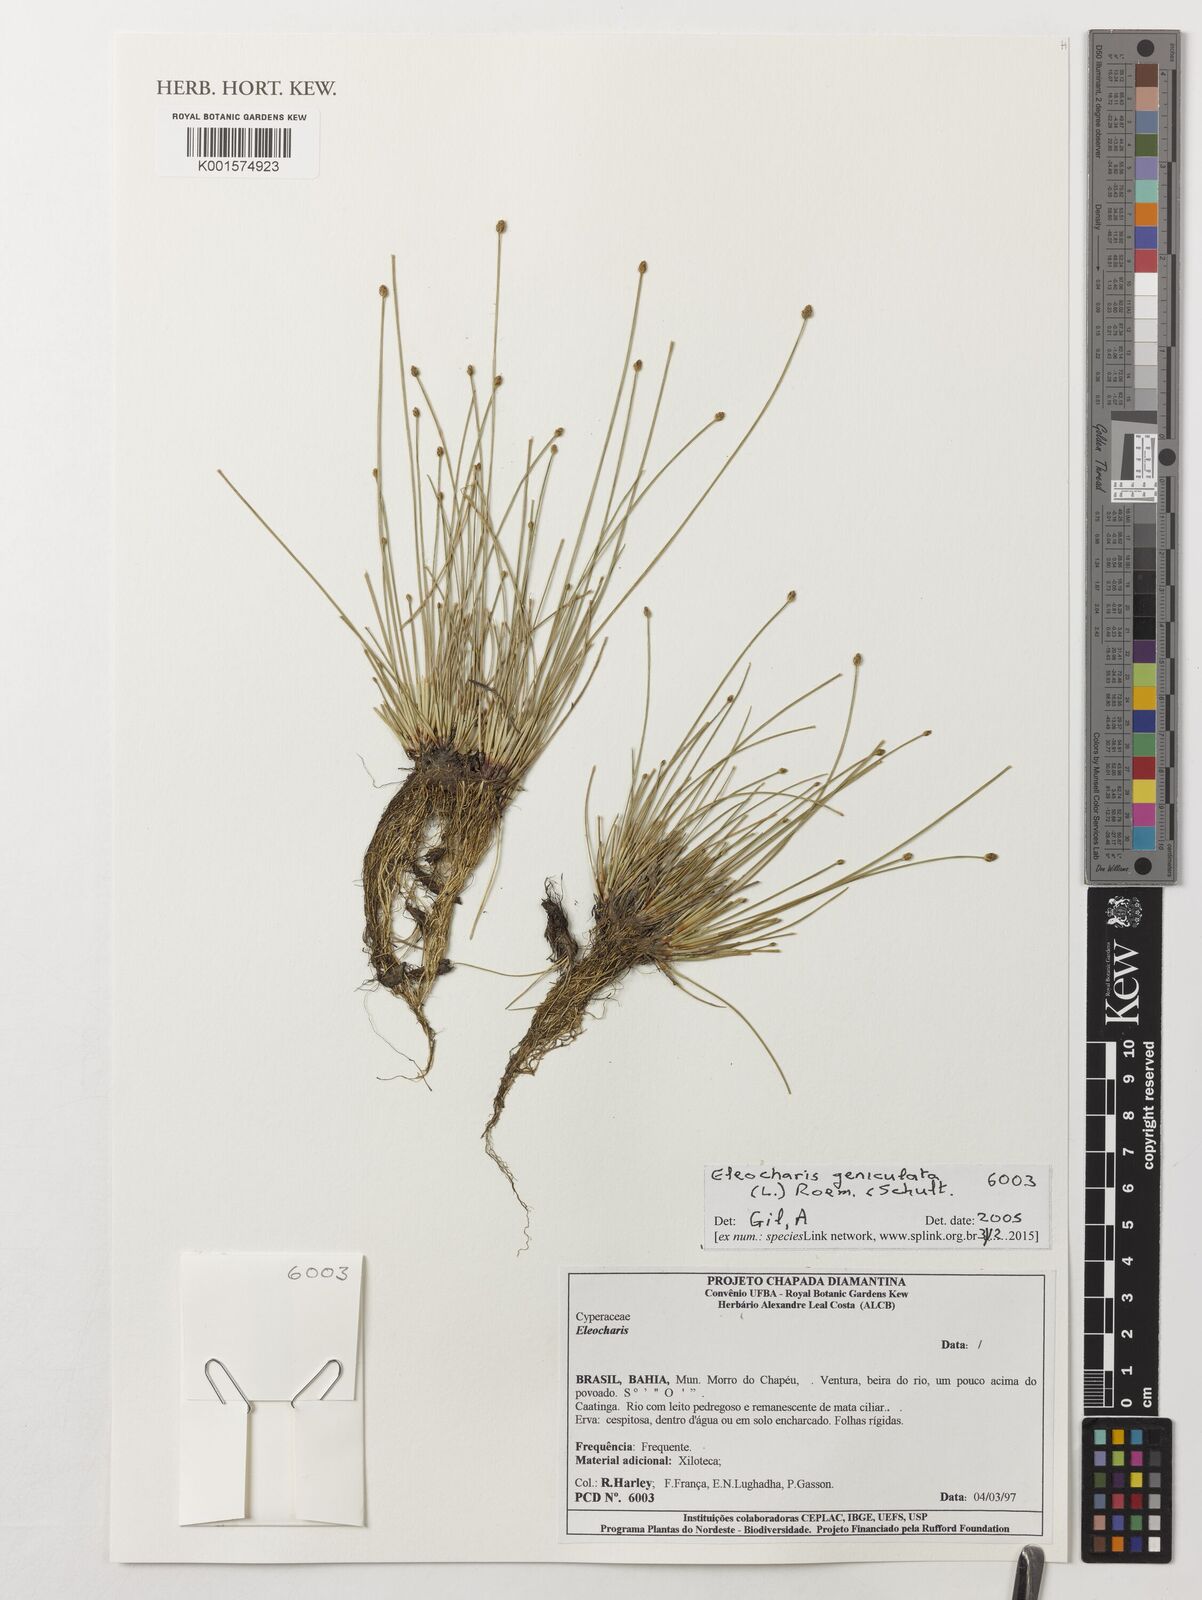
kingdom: Plantae
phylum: Tracheophyta
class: Liliopsida
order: Poales
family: Cyperaceae
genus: Eleocharis
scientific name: Eleocharis geniculata
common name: Canada spikesedge
